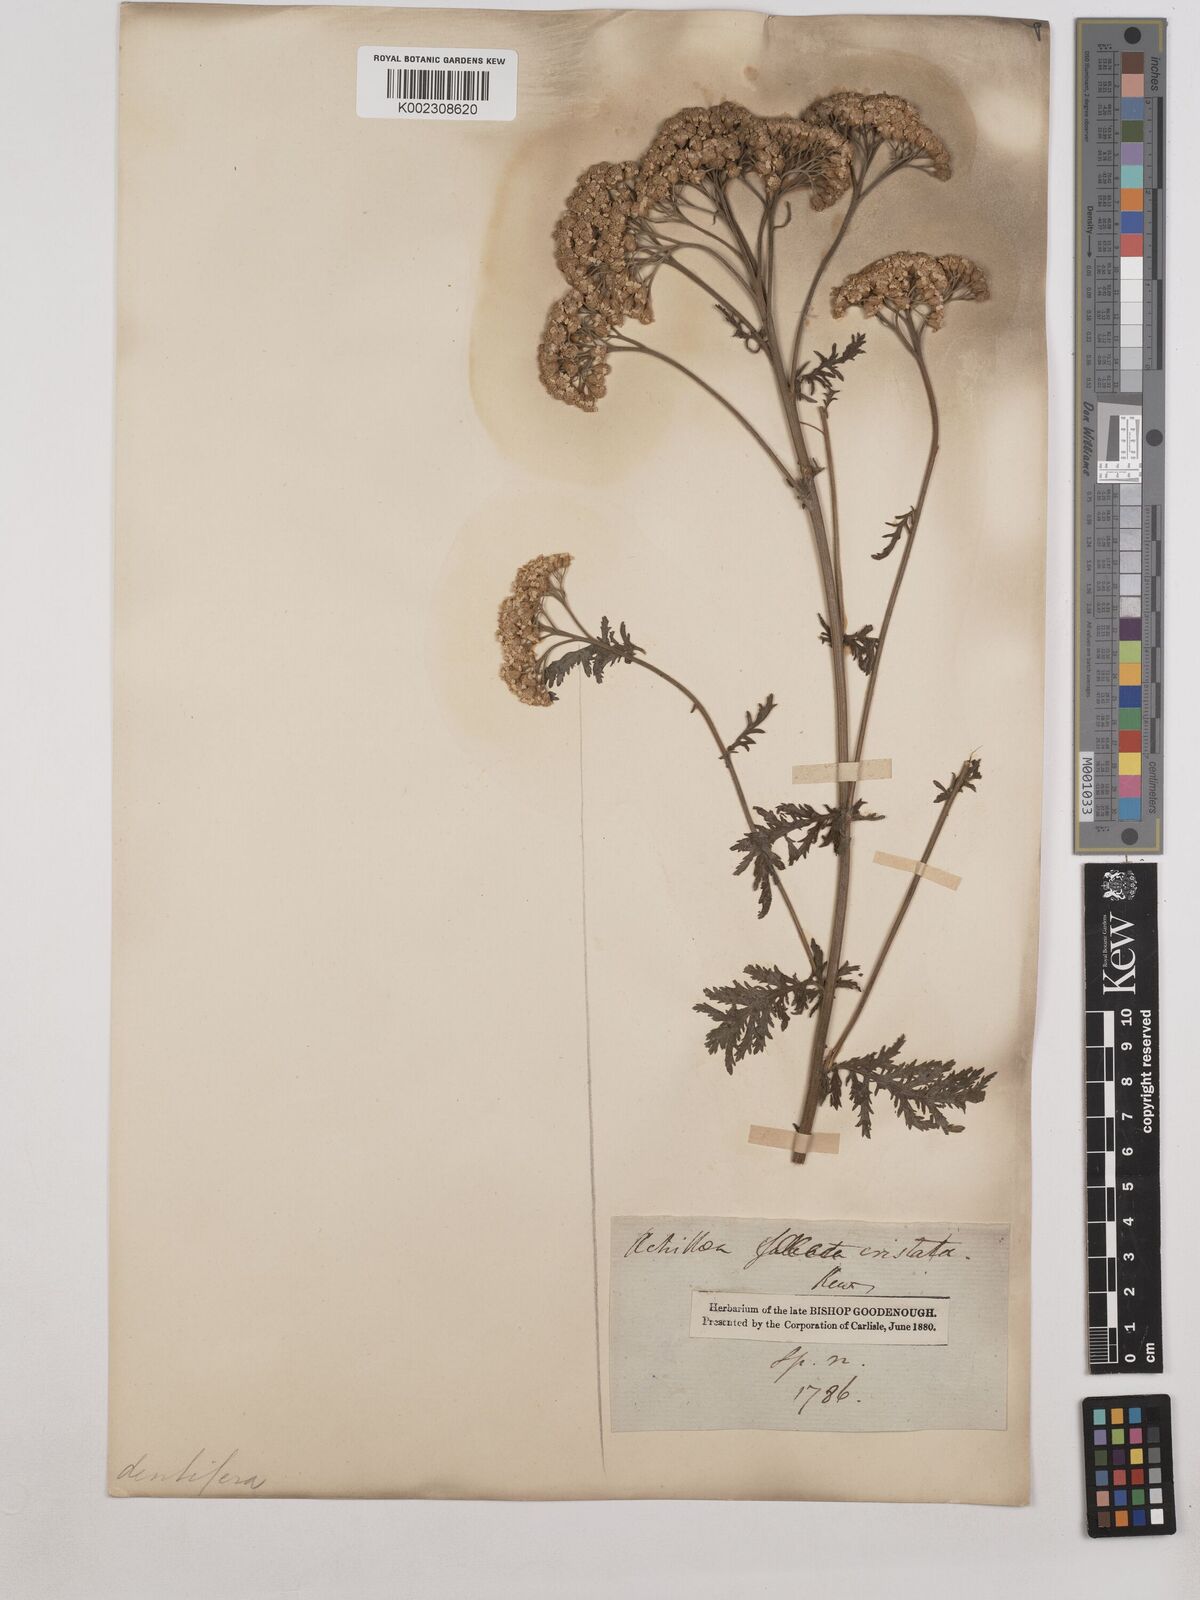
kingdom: Plantae
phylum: Tracheophyta
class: Magnoliopsida
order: Asterales
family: Asteraceae
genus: Achillea
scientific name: Achillea distans
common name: Tall yarrow
